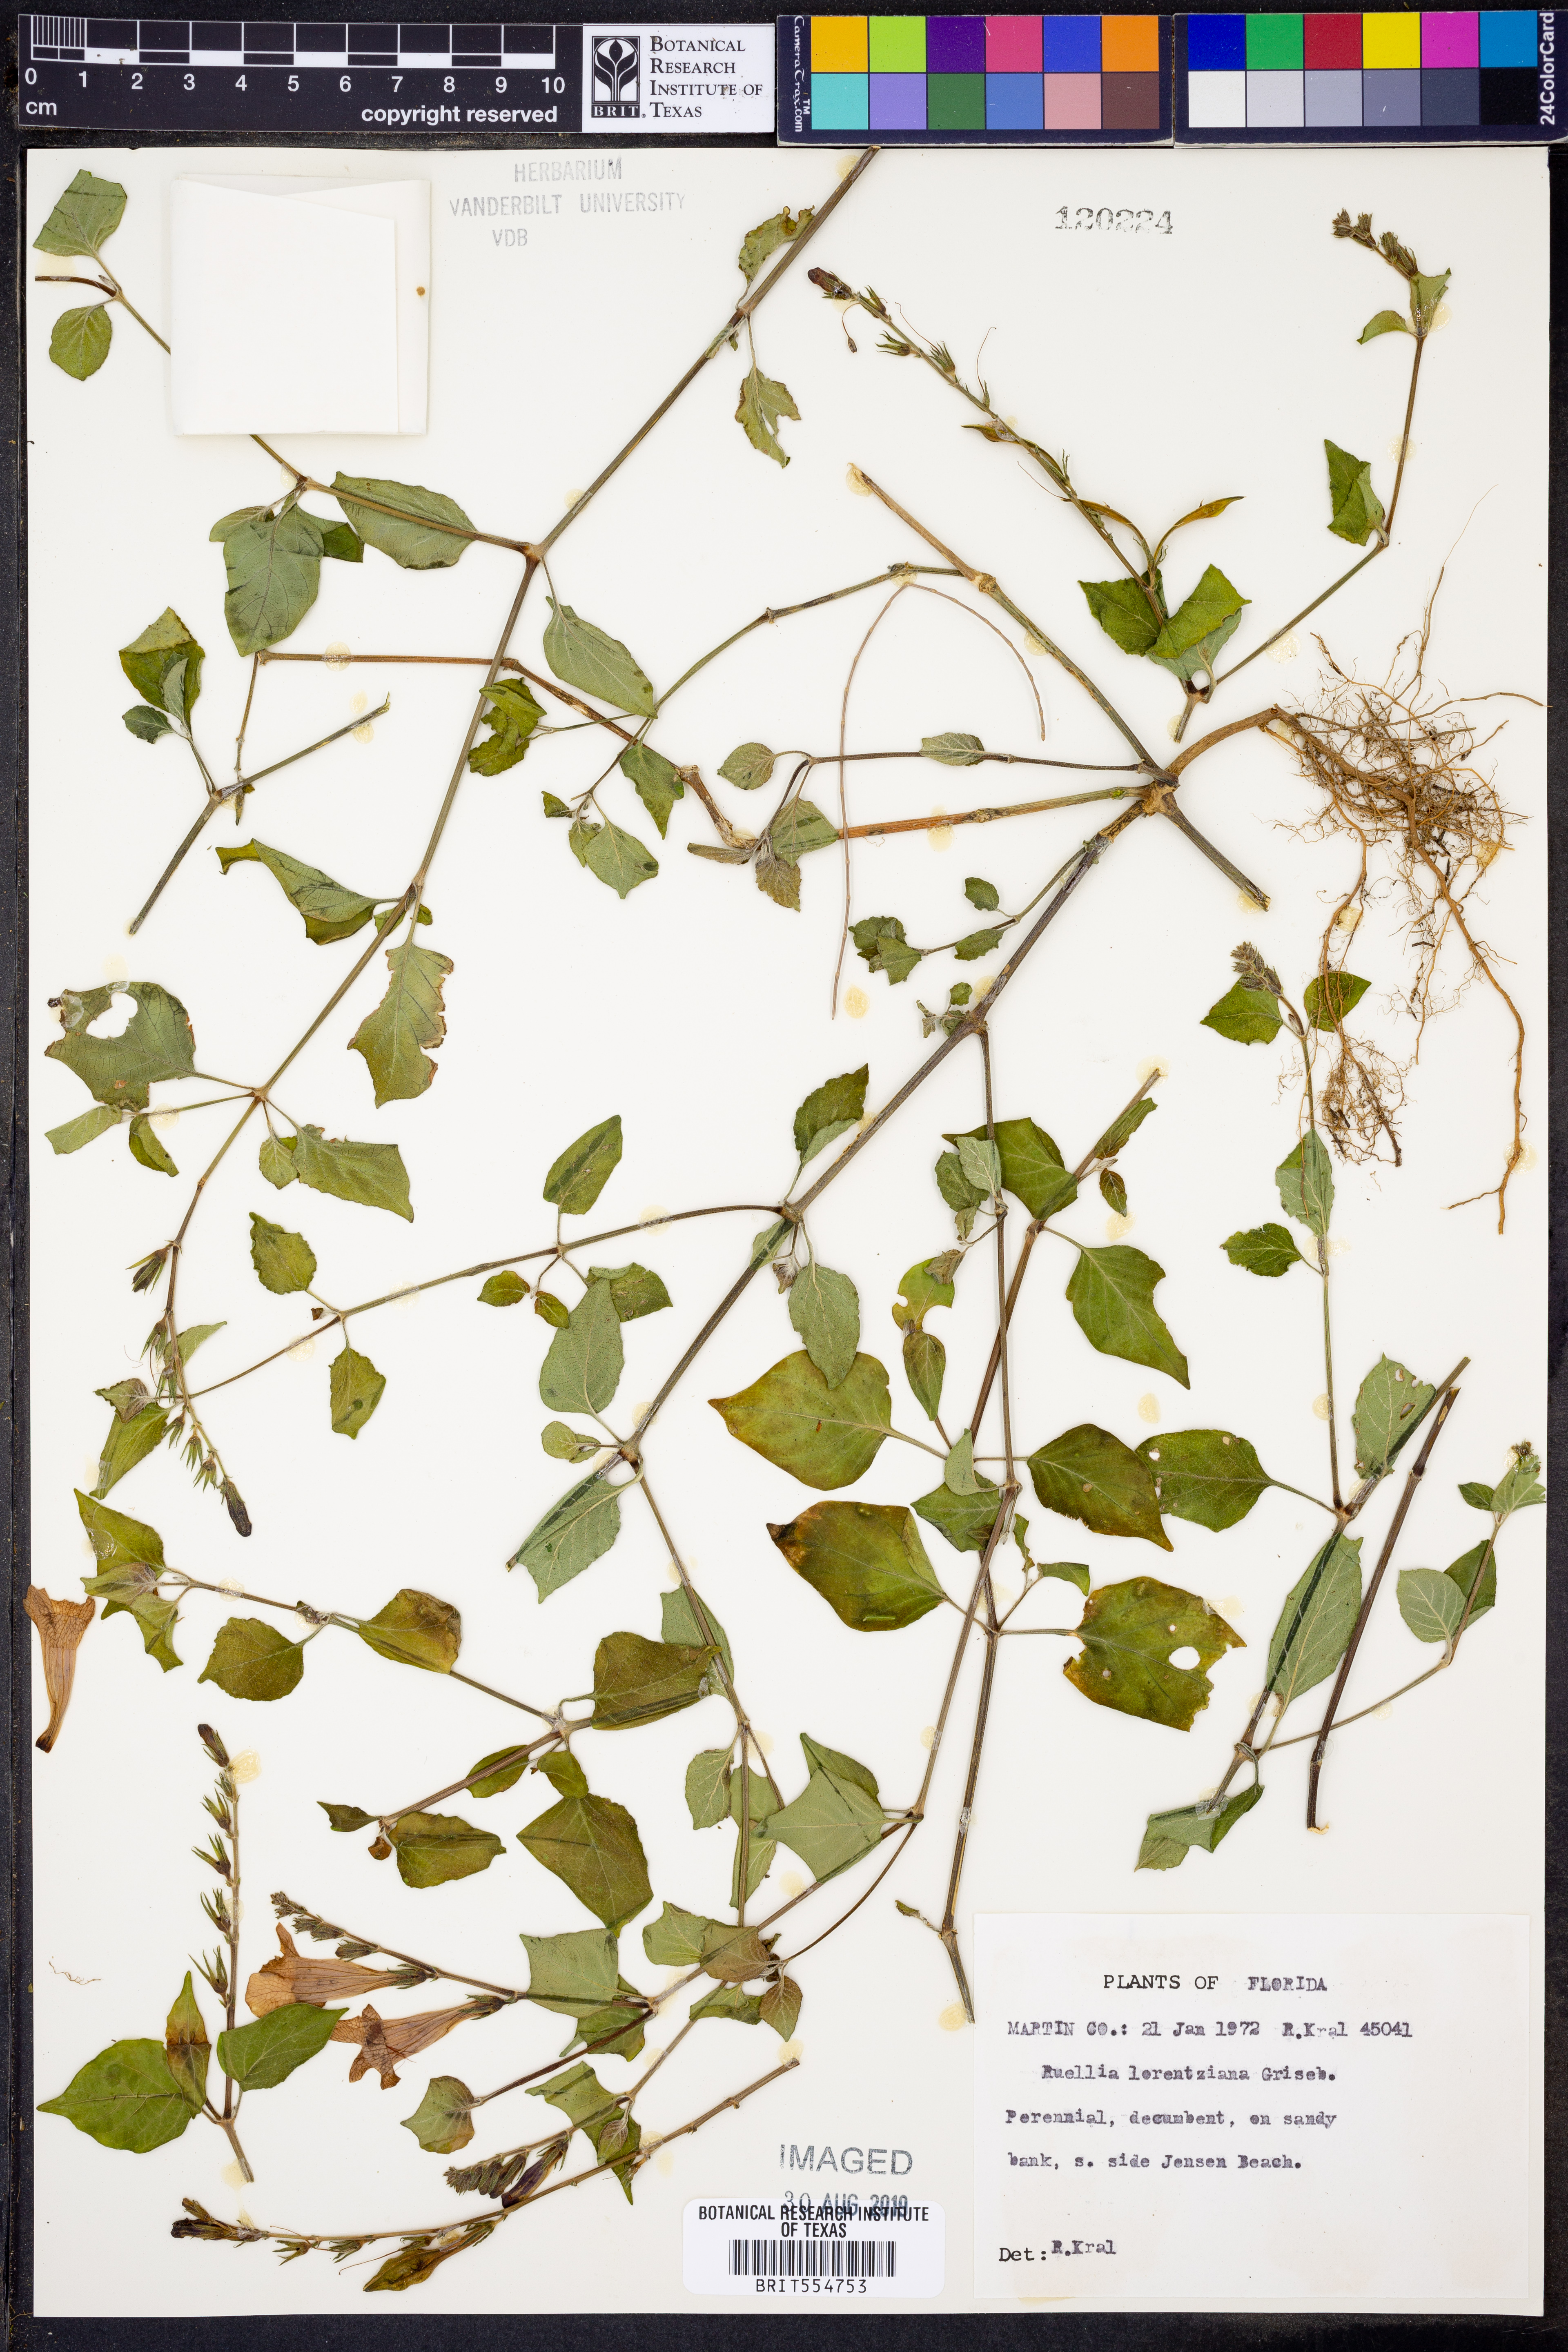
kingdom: Plantae
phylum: Tracheophyta
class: Magnoliopsida
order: Lamiales
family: Acanthaceae
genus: Ruellia
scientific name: Ruellia ciliatiflora
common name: Hairyflower wild petunia
